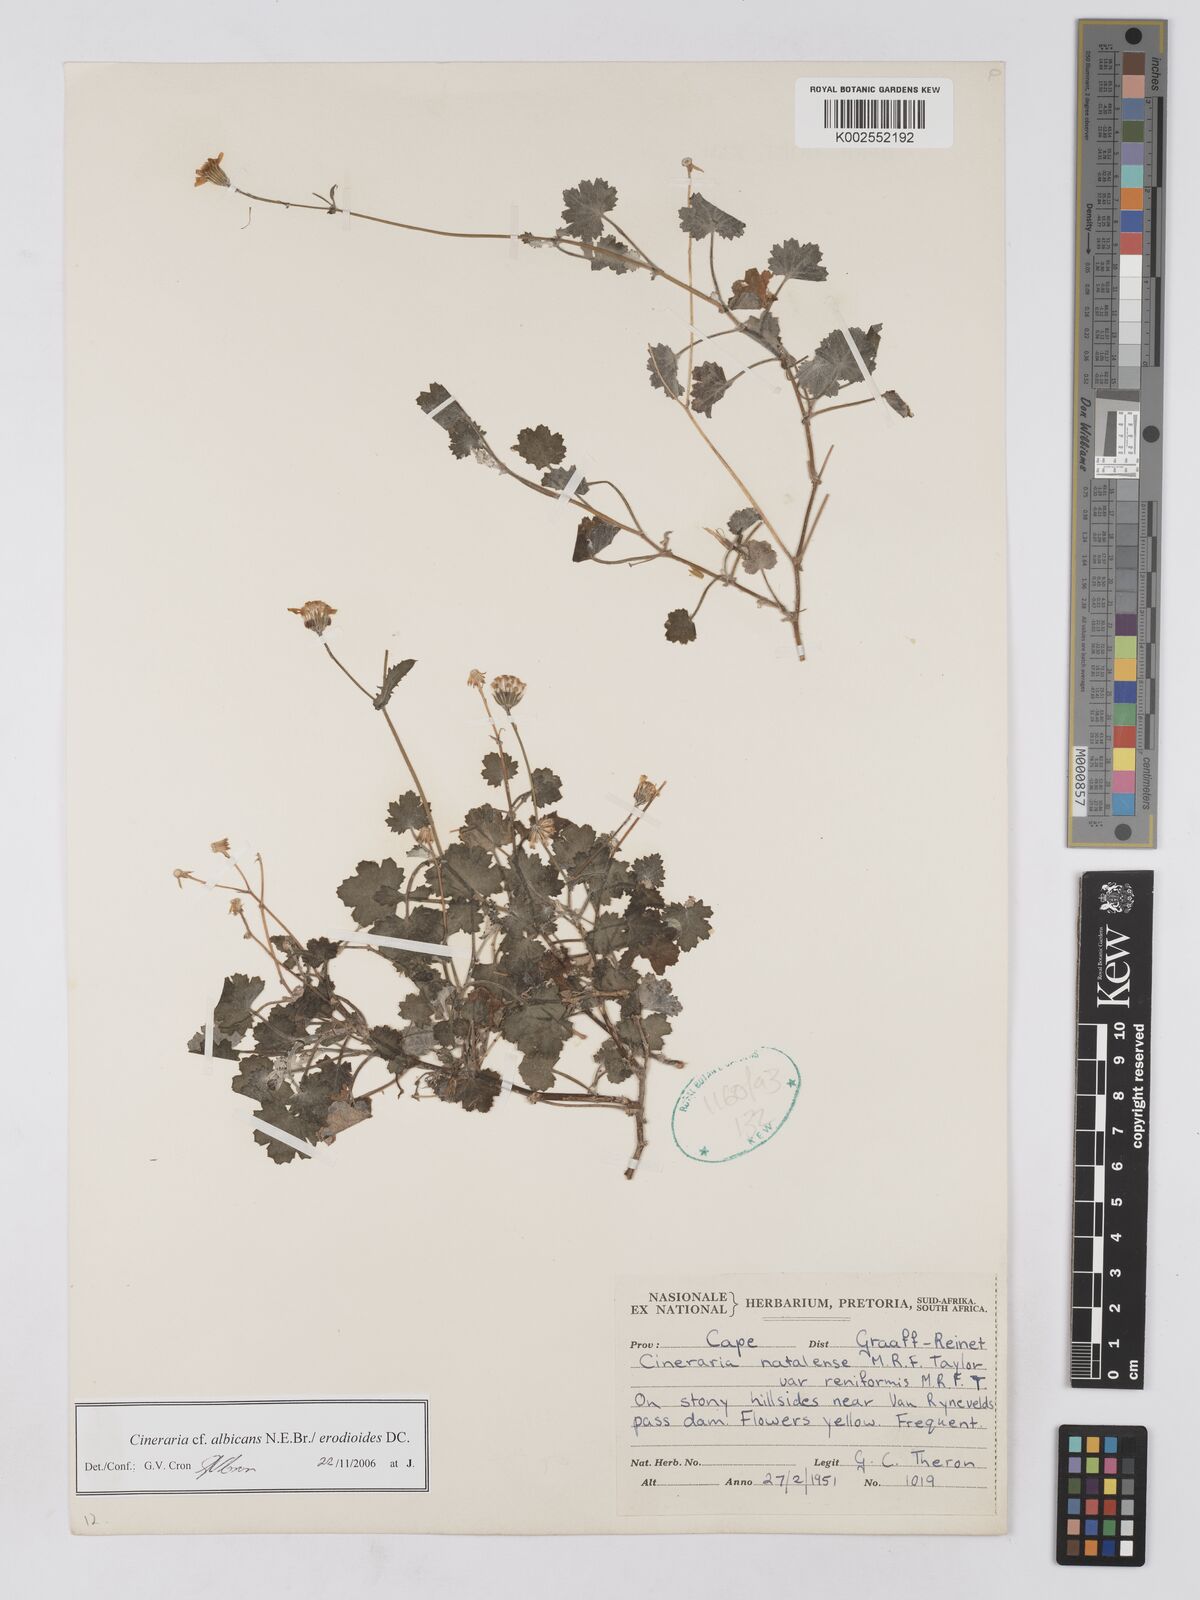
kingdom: Plantae
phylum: Tracheophyta
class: Magnoliopsida
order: Asterales
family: Asteraceae
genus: Cineraria
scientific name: Cineraria albicans
